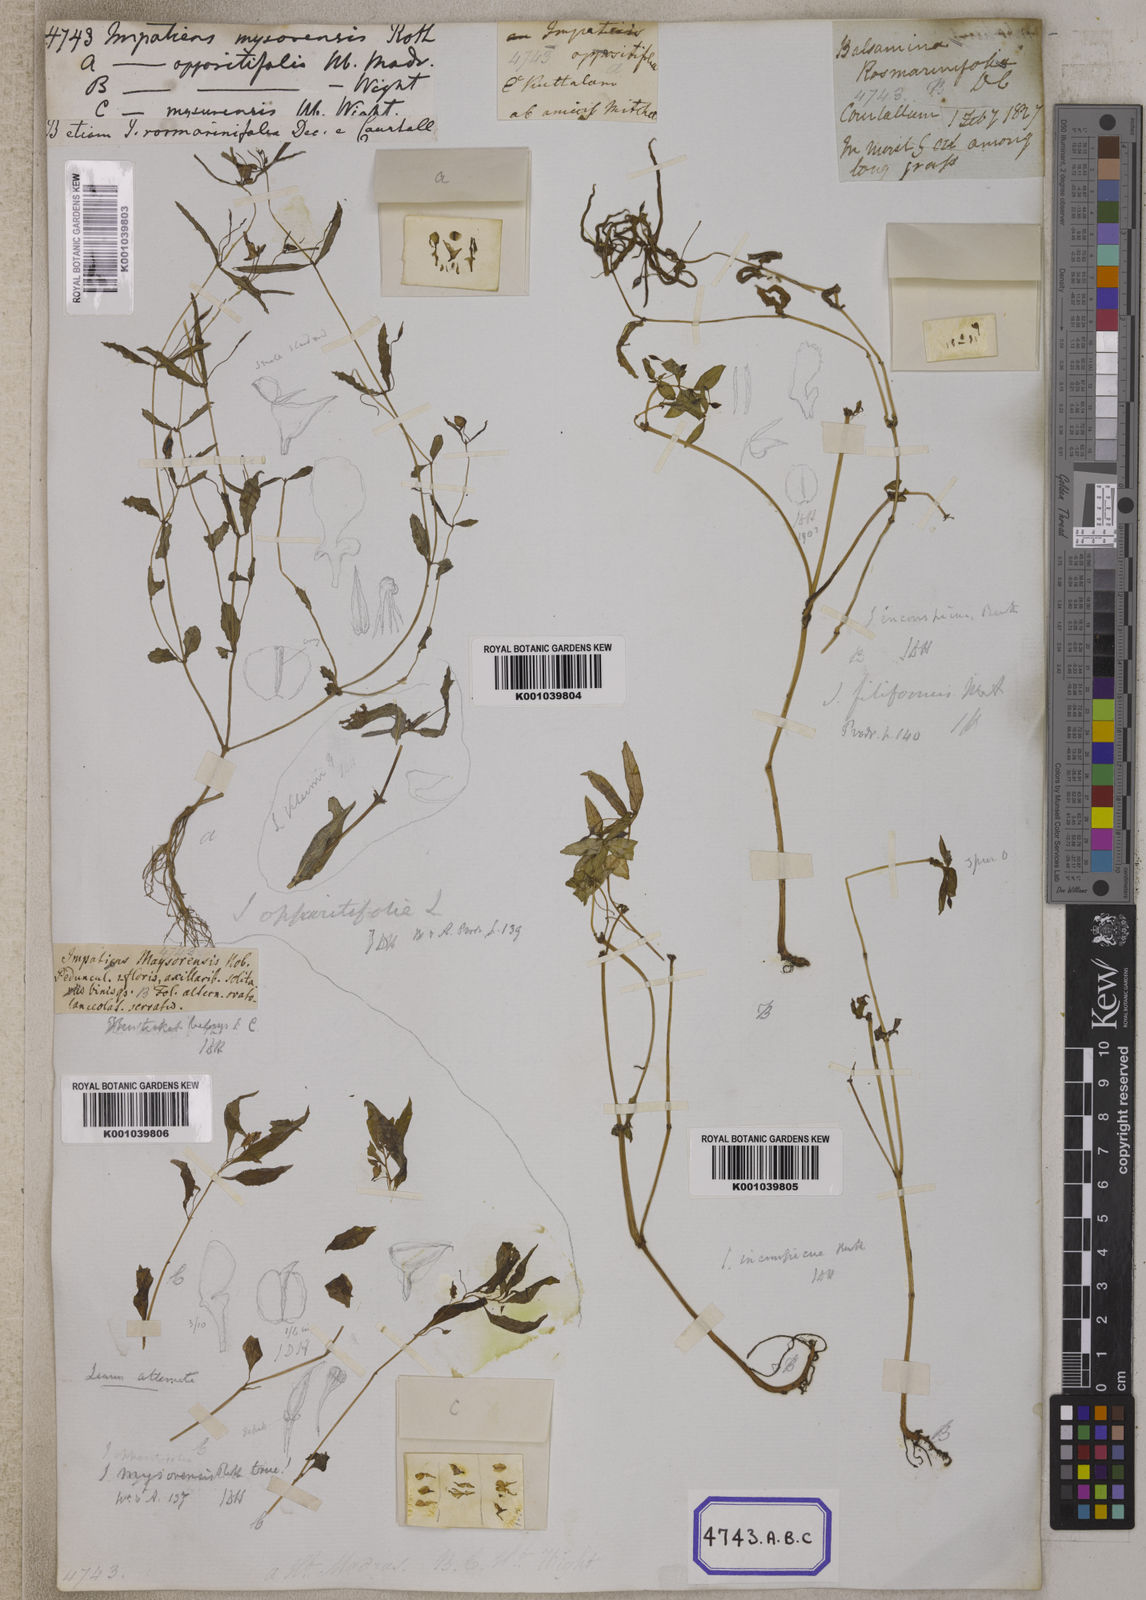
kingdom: Plantae
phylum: Tracheophyta
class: Magnoliopsida
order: Ericales
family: Balsaminaceae
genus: Impatiens
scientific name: Impatiens inconspicua
